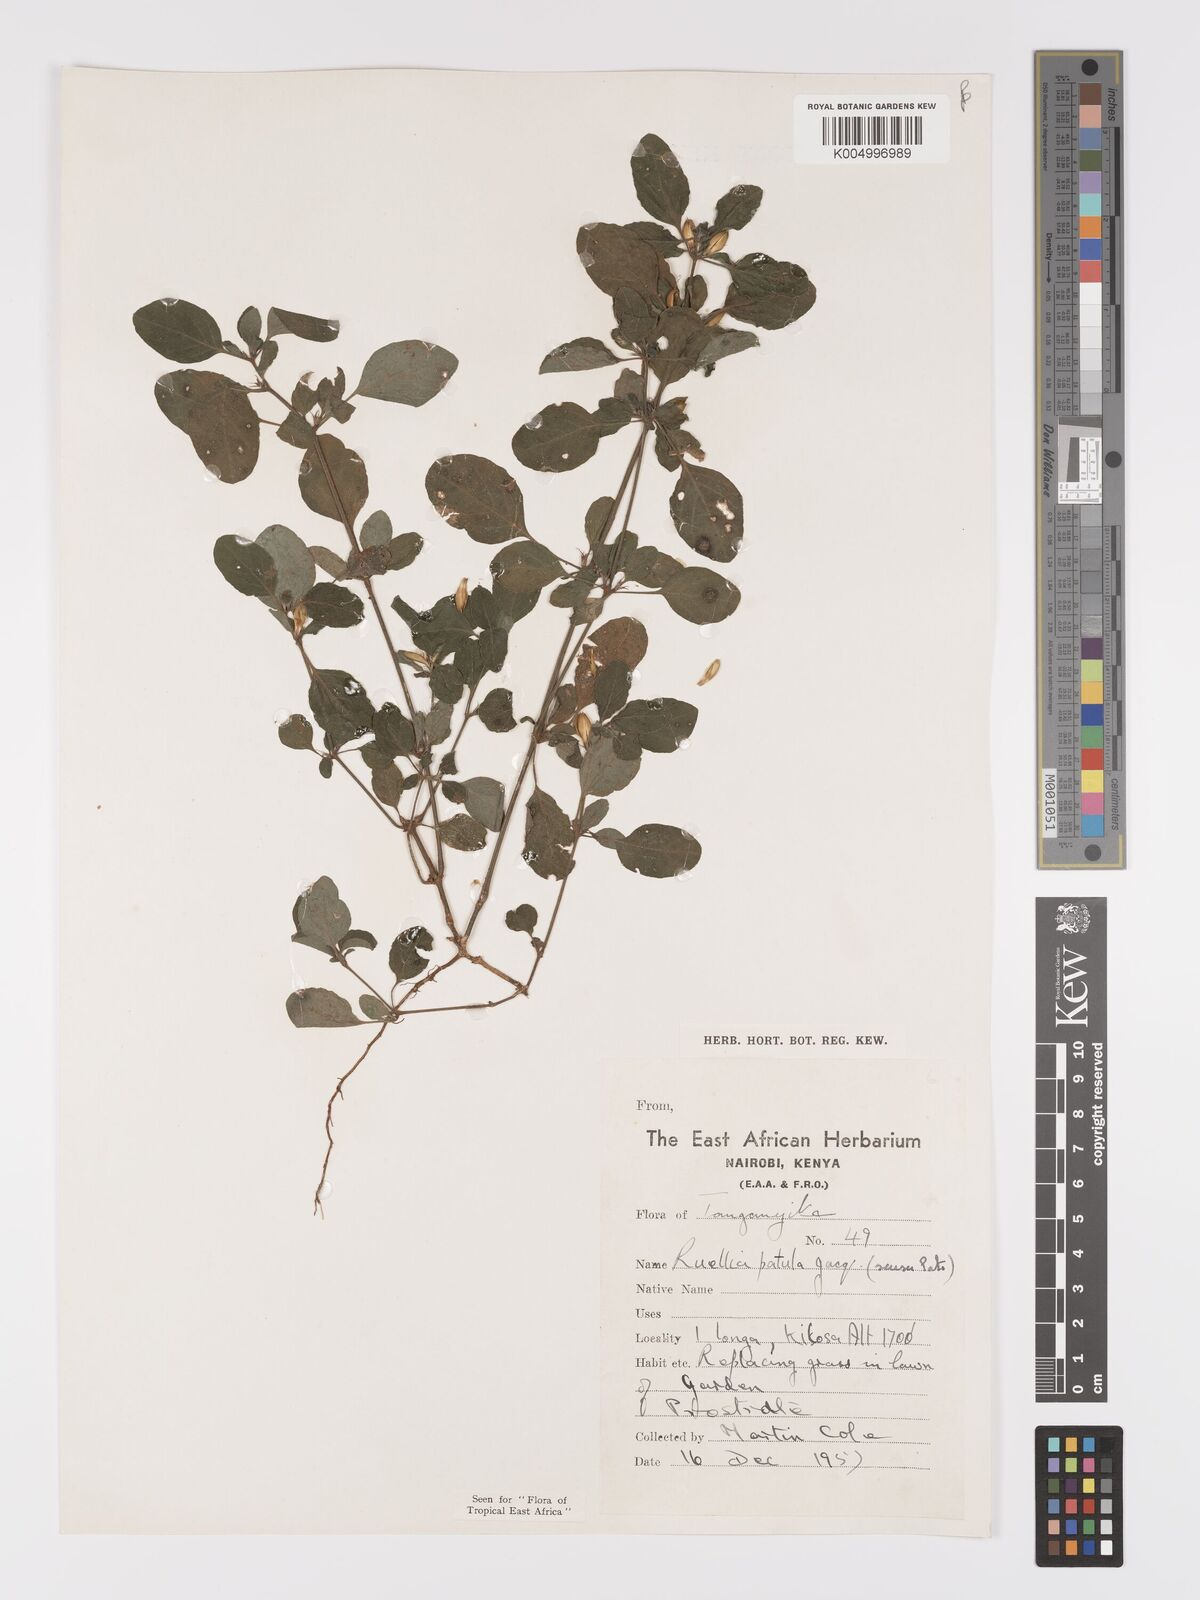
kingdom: Plantae
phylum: Tracheophyta
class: Magnoliopsida
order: Lamiales
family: Acanthaceae
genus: Ruellia
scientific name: Ruellia patula
